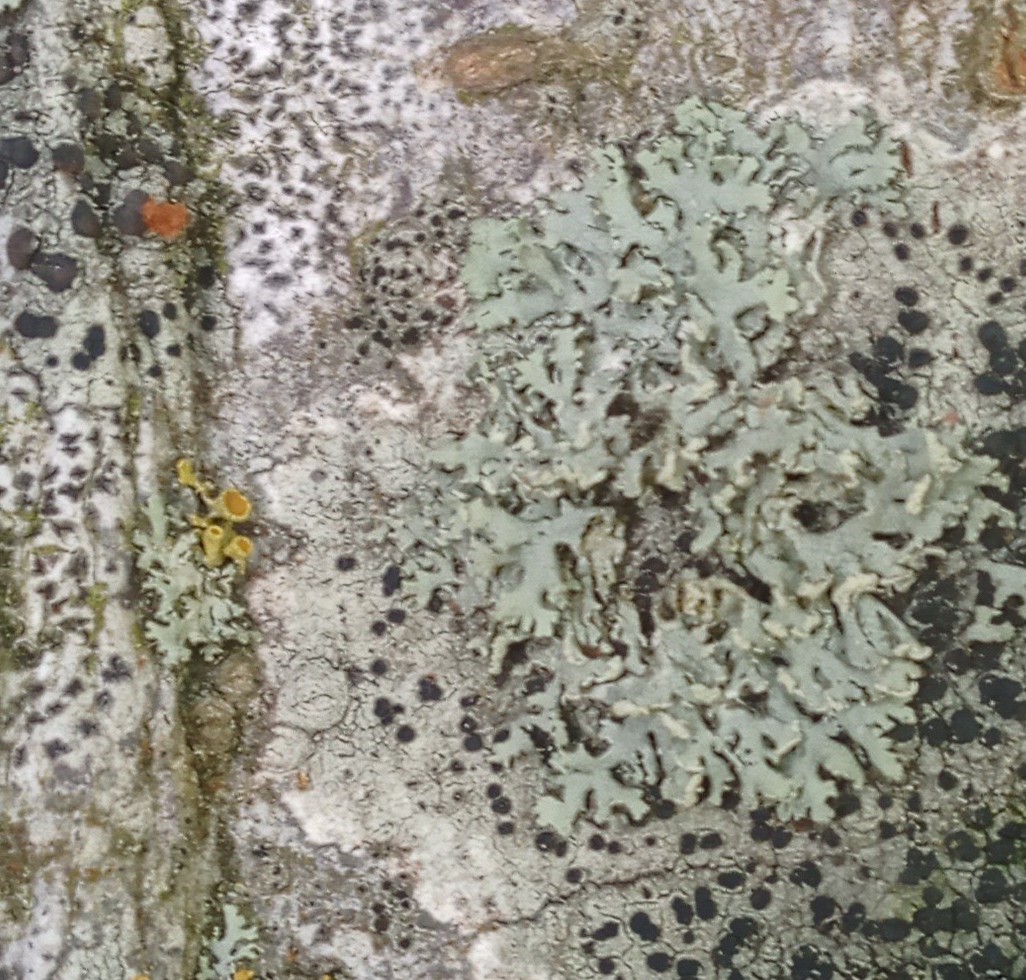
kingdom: Fungi
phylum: Ascomycota
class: Lecanoromycetes
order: Caliciales
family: Physciaceae
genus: Physcia
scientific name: Physcia tenella
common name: spæd rosetlav
